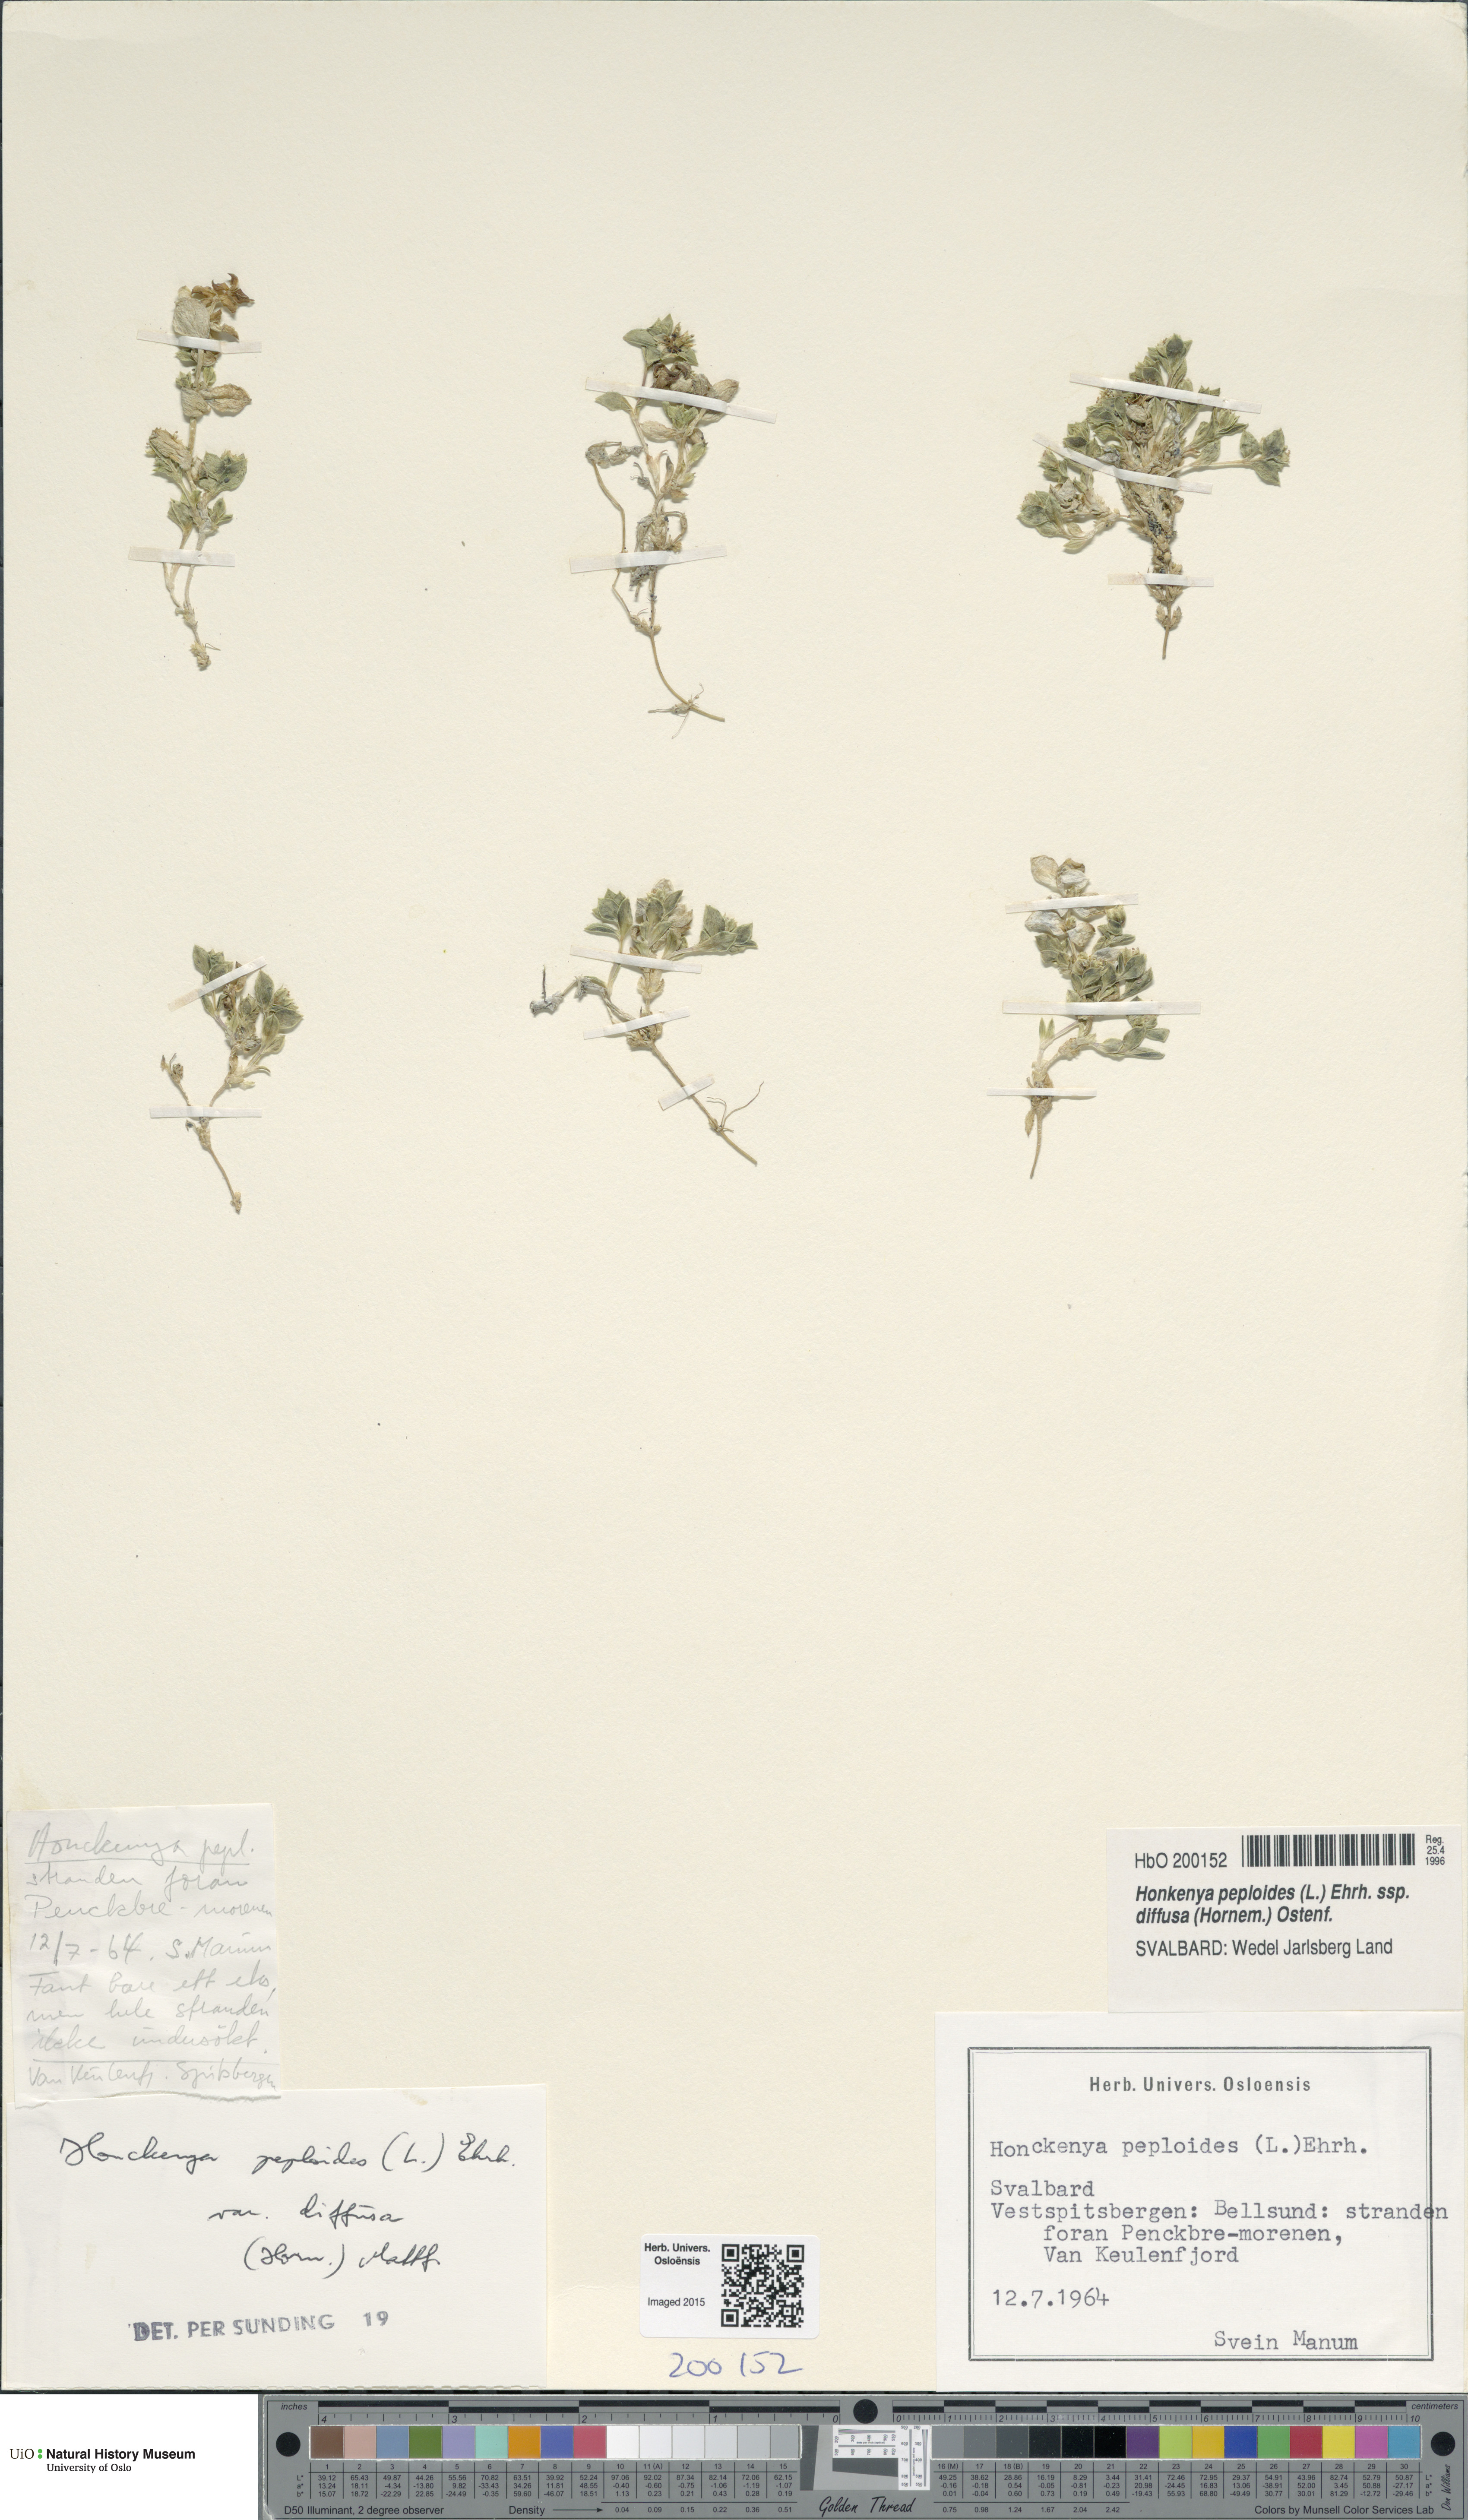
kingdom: Plantae
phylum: Tracheophyta
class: Magnoliopsida
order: Caryophyllales
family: Caryophyllaceae
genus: Honckenya
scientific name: Honckenya peploides
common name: Sea sandwort
